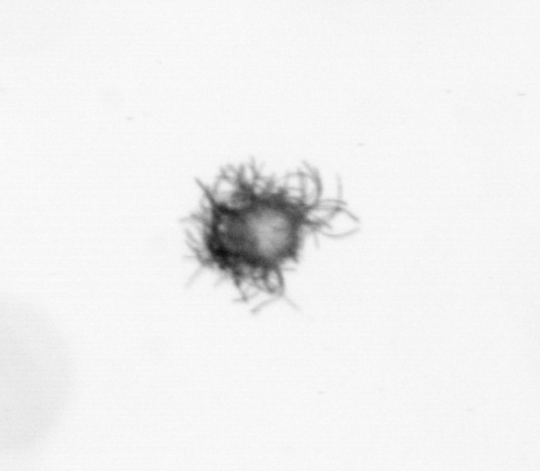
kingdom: Bacteria
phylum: Cyanobacteria
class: Cyanobacteriia
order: Cyanobacteriales
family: Microcoleaceae
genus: Trichodesmium
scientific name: Trichodesmium
